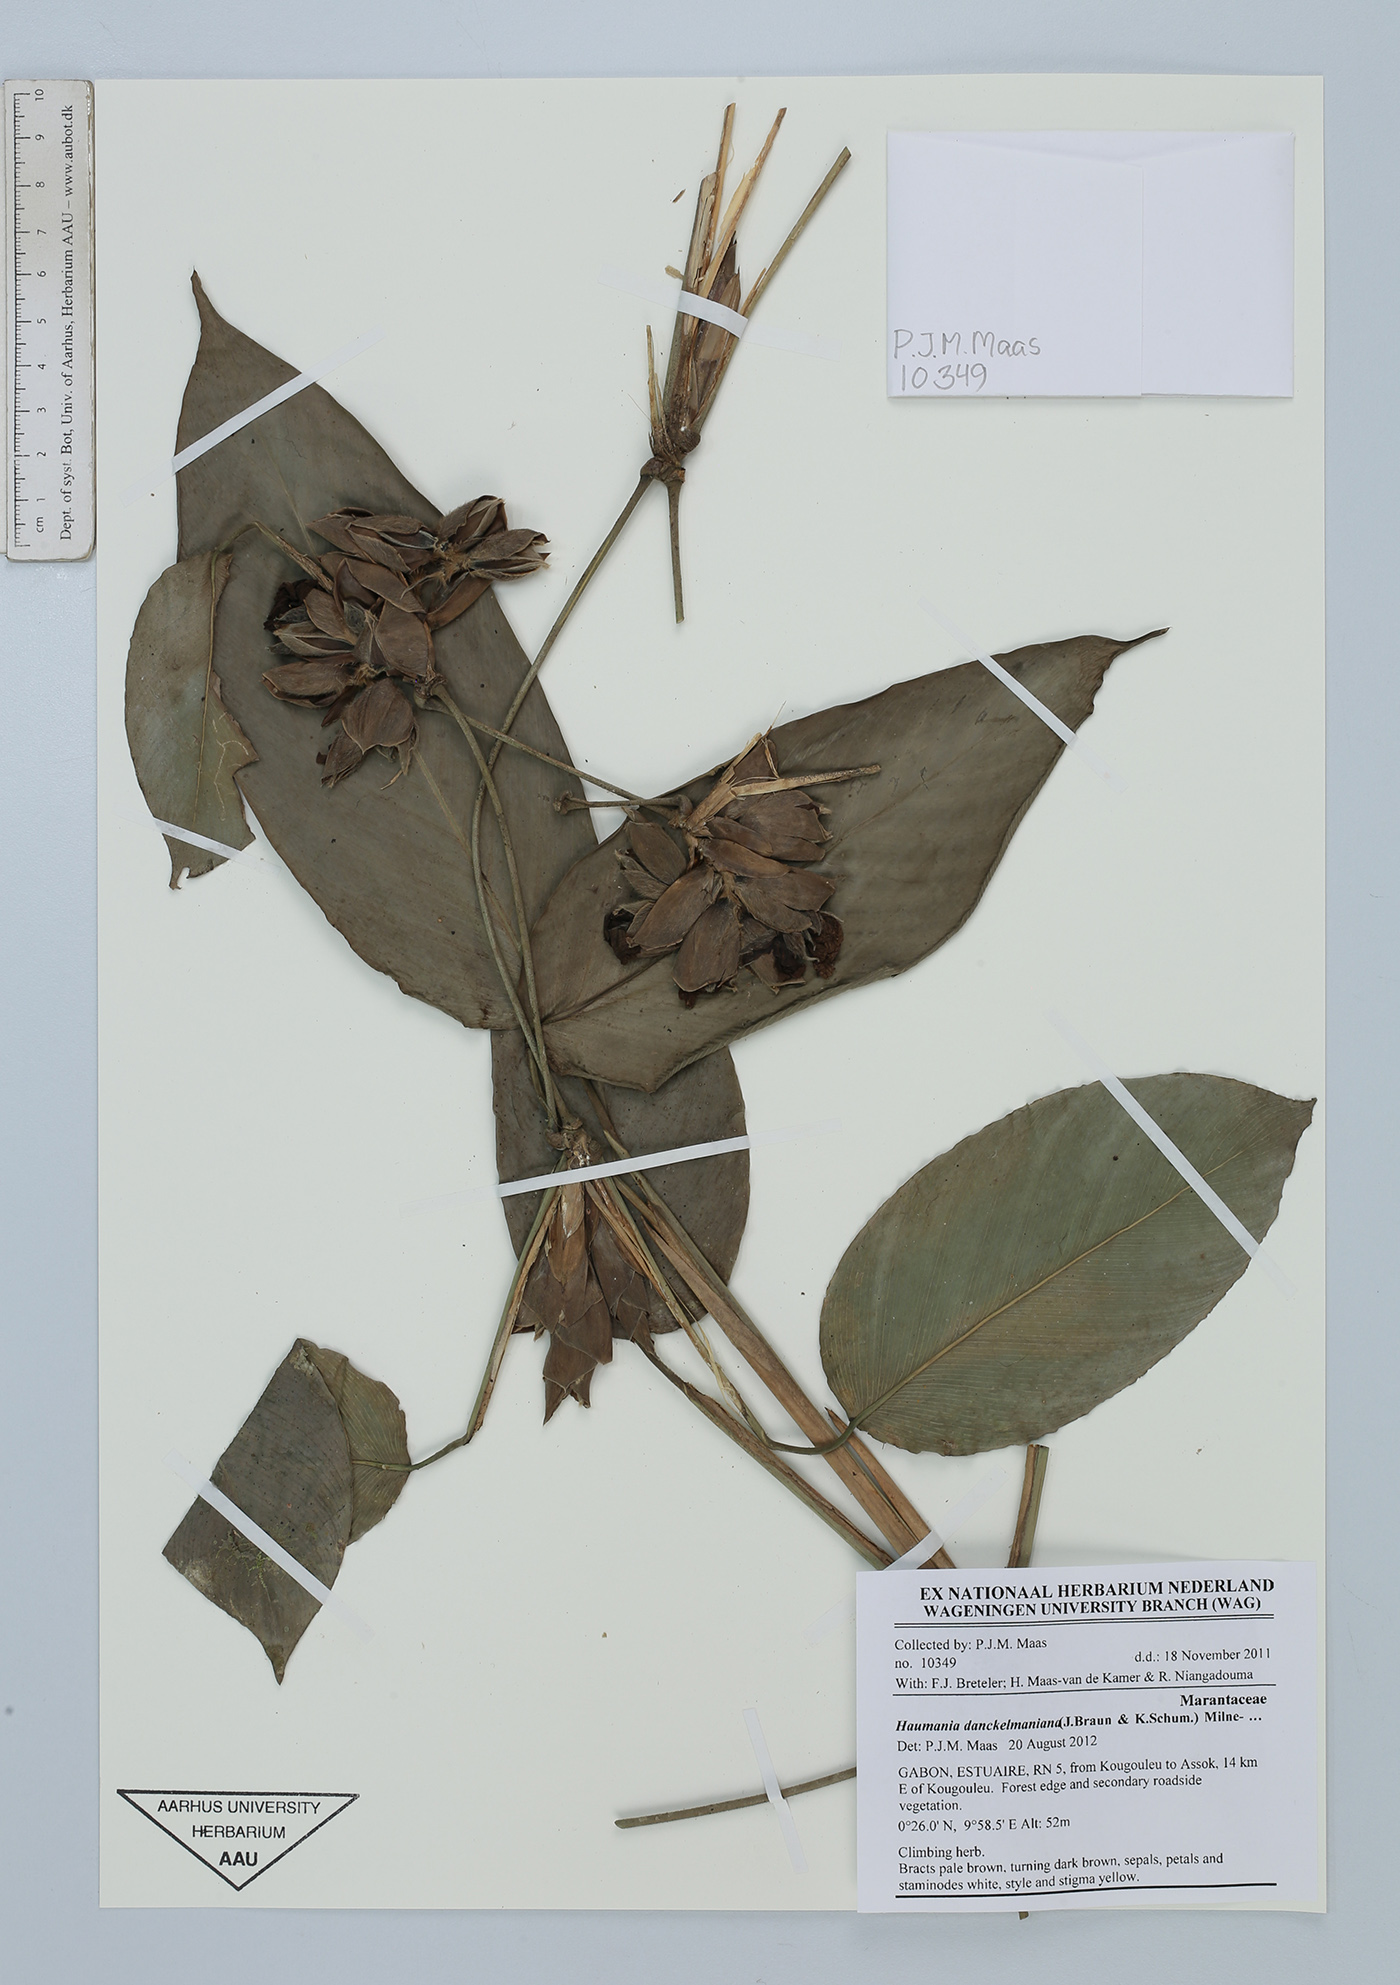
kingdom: Plantae
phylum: Tracheophyta
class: Liliopsida
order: Zingiberales
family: Marantaceae
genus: Haumania
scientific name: Haumania danckelmaniana
